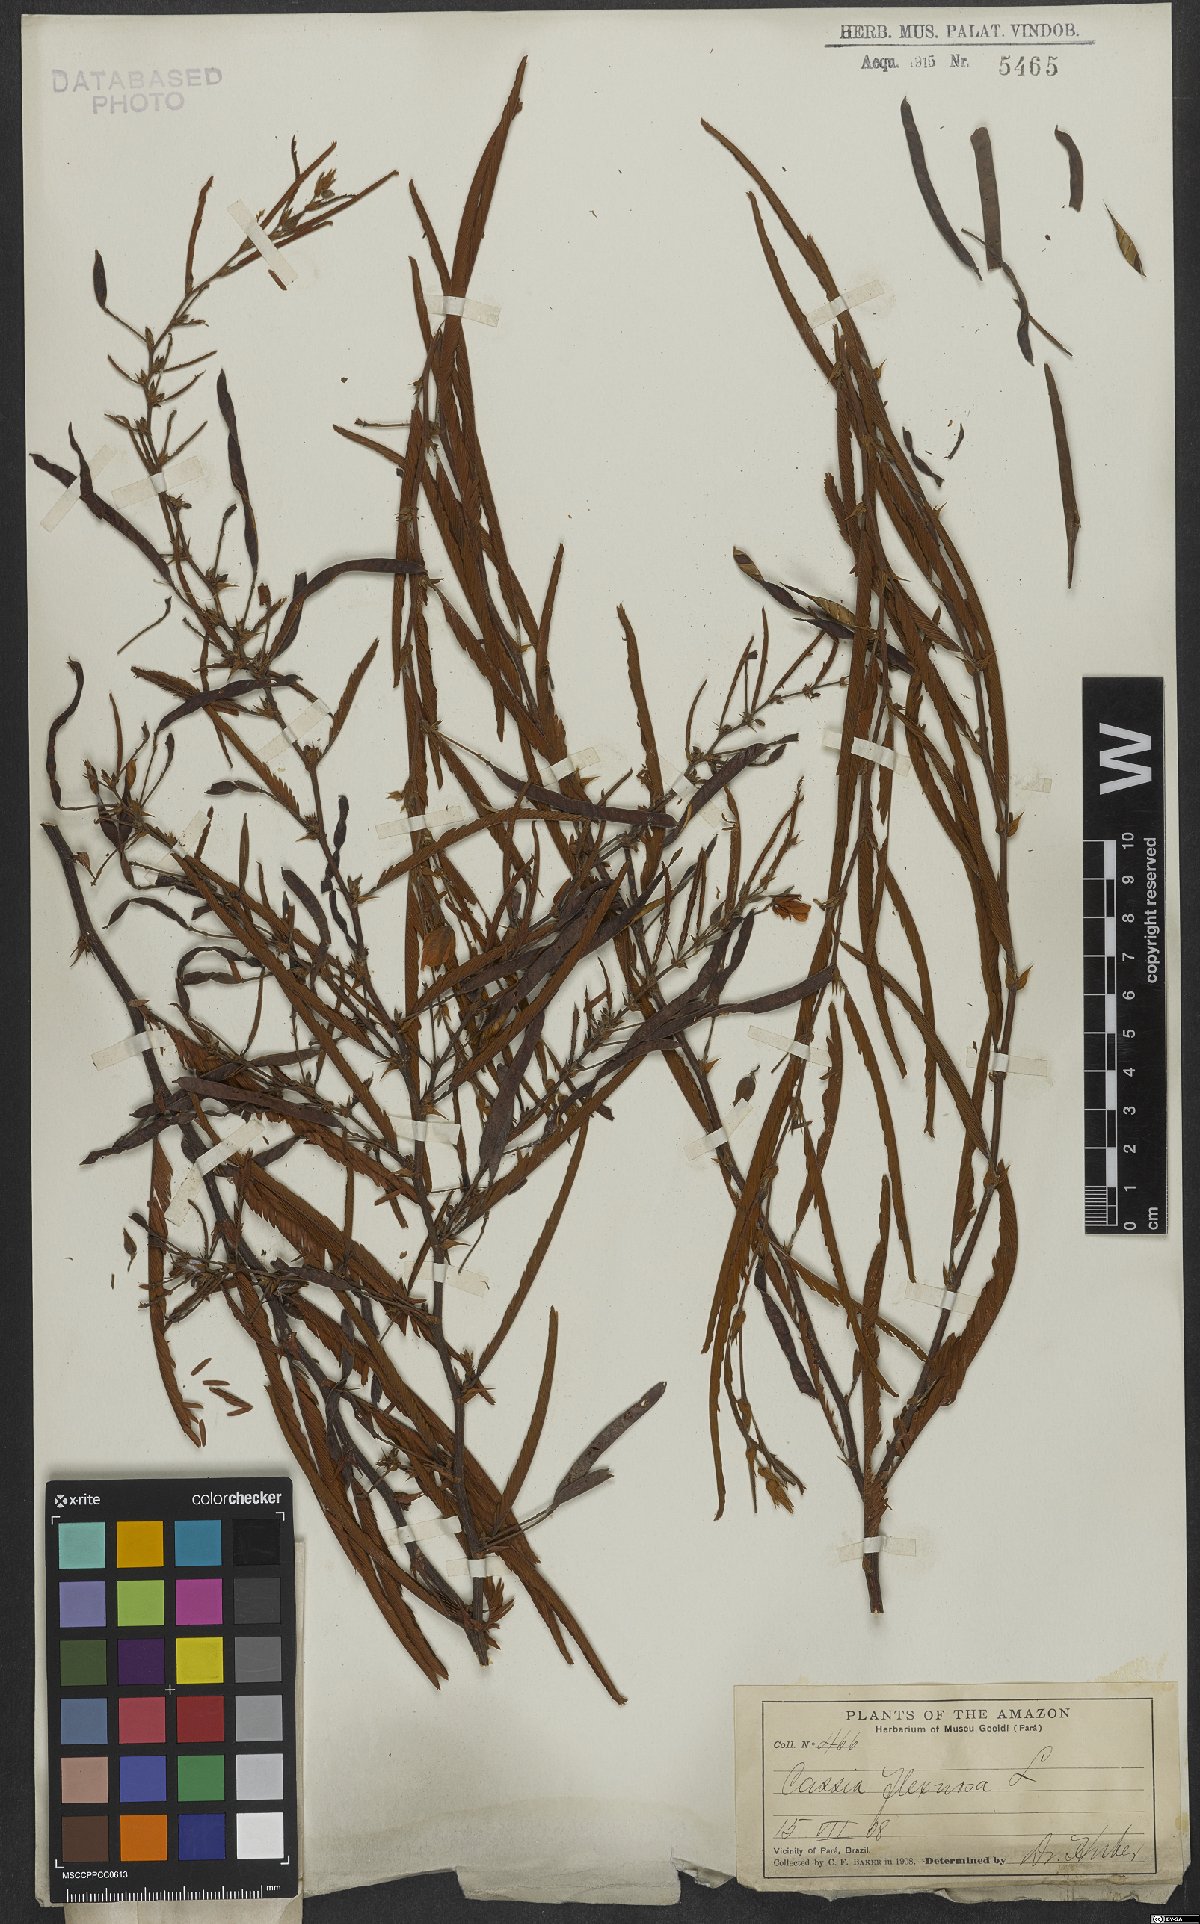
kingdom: Plantae
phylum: Tracheophyta
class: Magnoliopsida
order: Fabales
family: Fabaceae
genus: Chamaecrista
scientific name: Chamaecrista flexuosa
